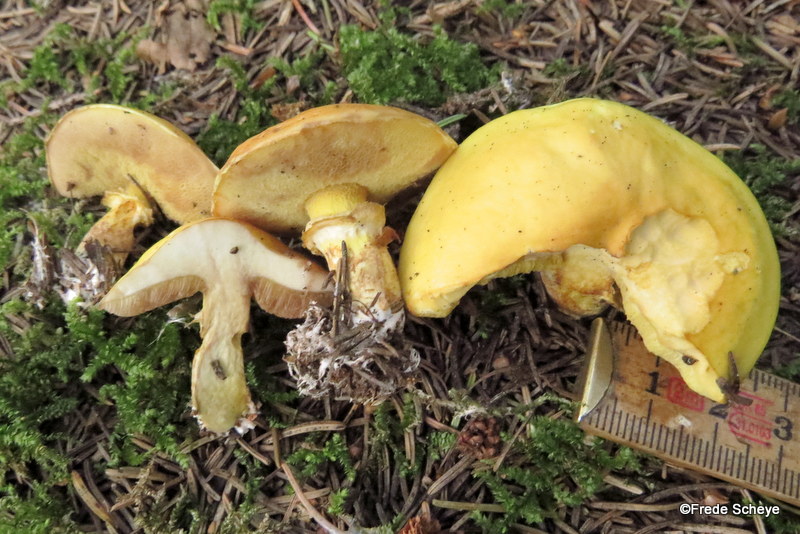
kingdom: Fungi
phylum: Basidiomycota
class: Agaricomycetes
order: Boletales
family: Suillaceae
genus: Suillus
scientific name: Suillus grevillei
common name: lærke-slimrørhat
